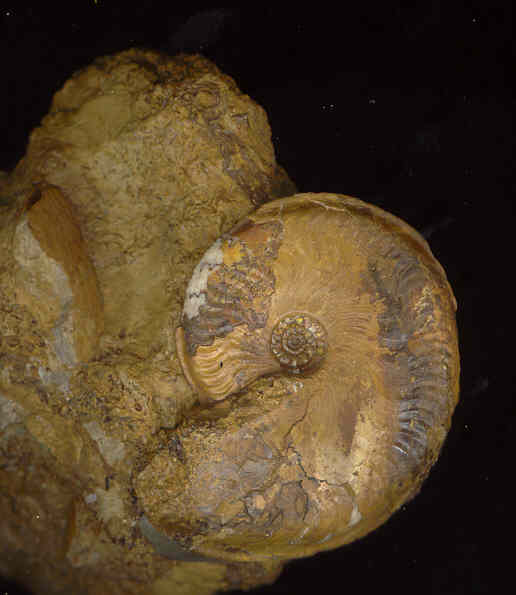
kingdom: Animalia
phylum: Mollusca
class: Cephalopoda
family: Graphoceratidae
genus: Hyperlioceras
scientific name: Hyperlioceras curvicostatum
